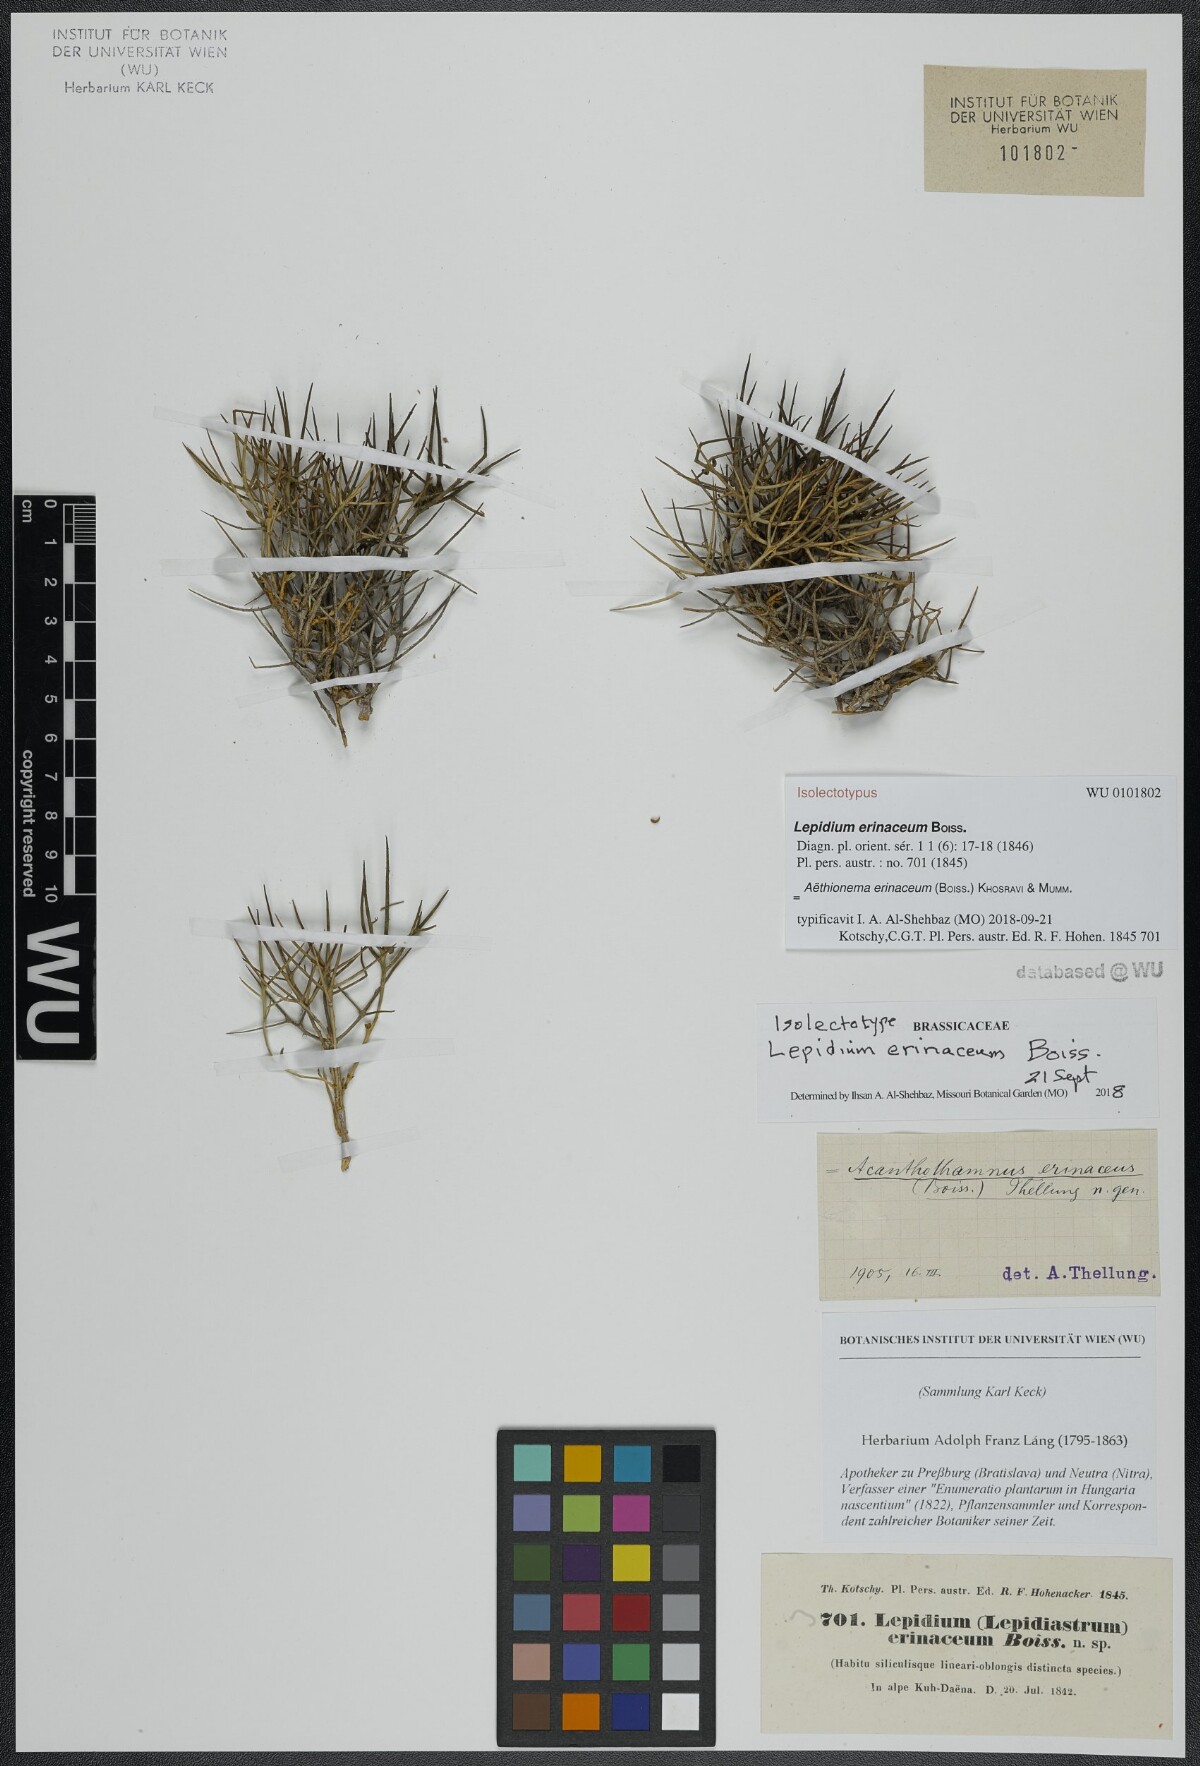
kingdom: Plantae
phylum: Tracheophyta
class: Magnoliopsida
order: Brassicales
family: Brassicaceae
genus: Aethionema
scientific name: Aethionema erinaceum
